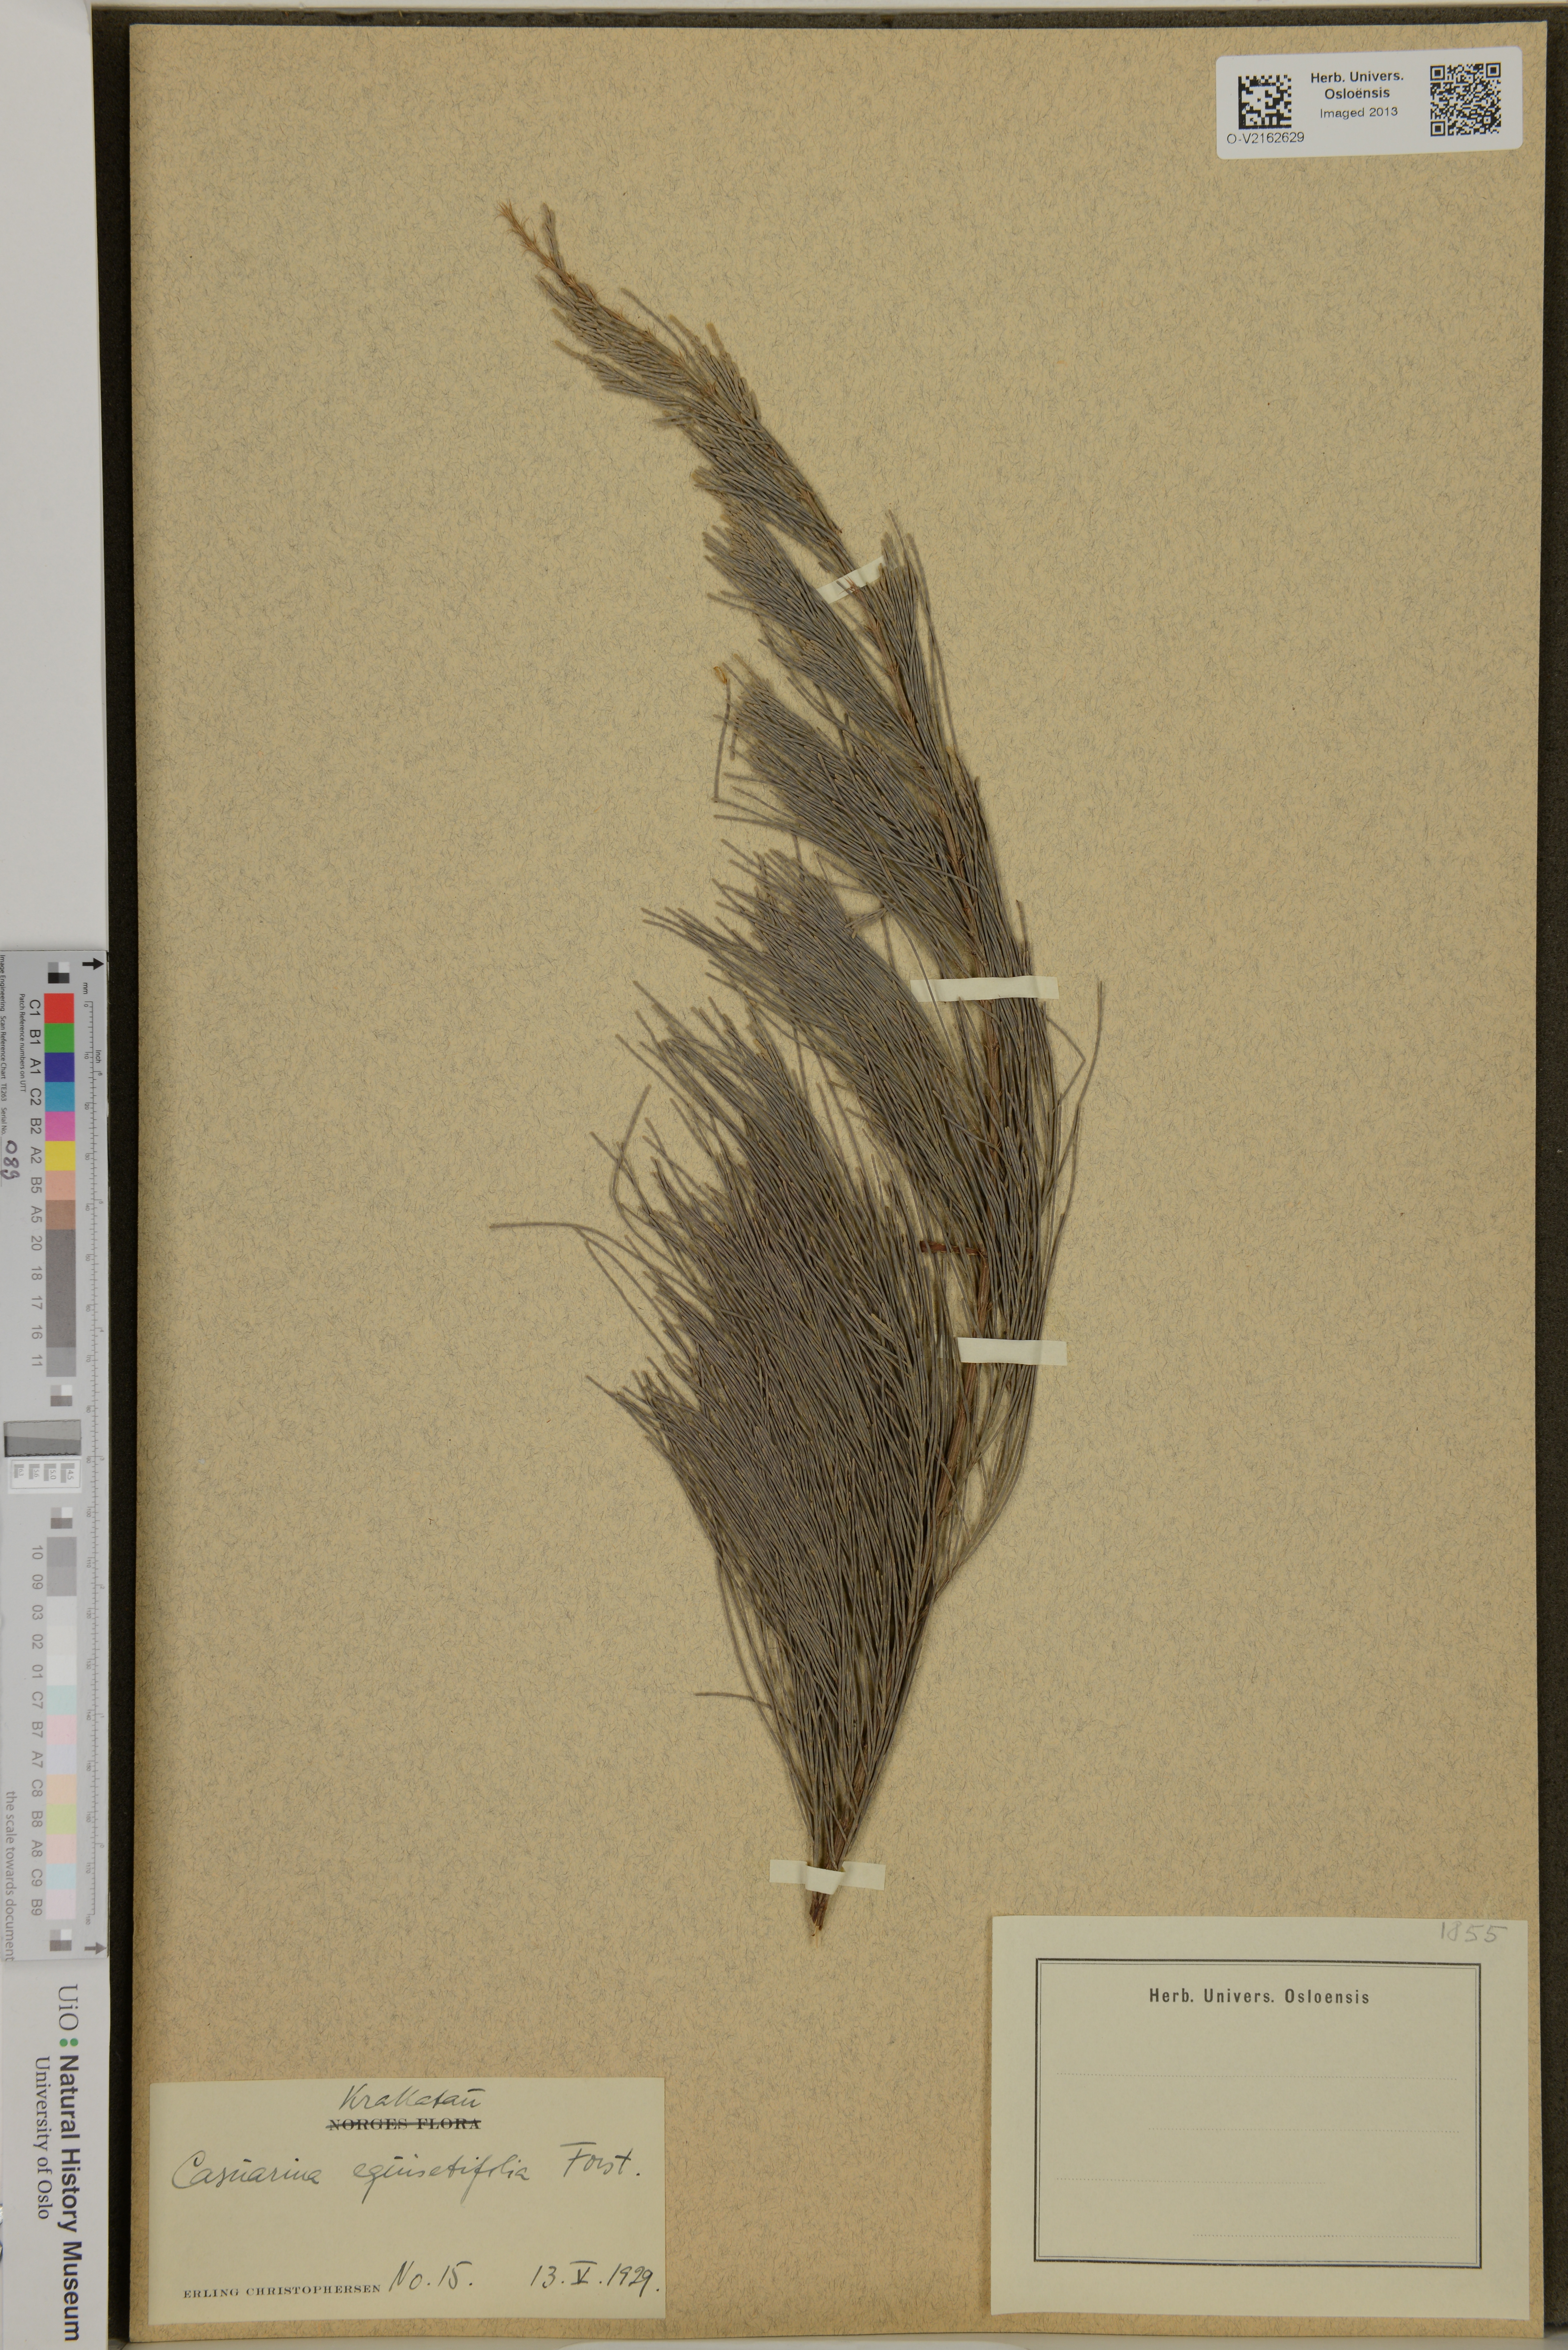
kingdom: Plantae
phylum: Tracheophyta
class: Magnoliopsida
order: Fagales
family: Casuarinaceae
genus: Casuarina
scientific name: Casuarina equisetifolia
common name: Beach sheoak
